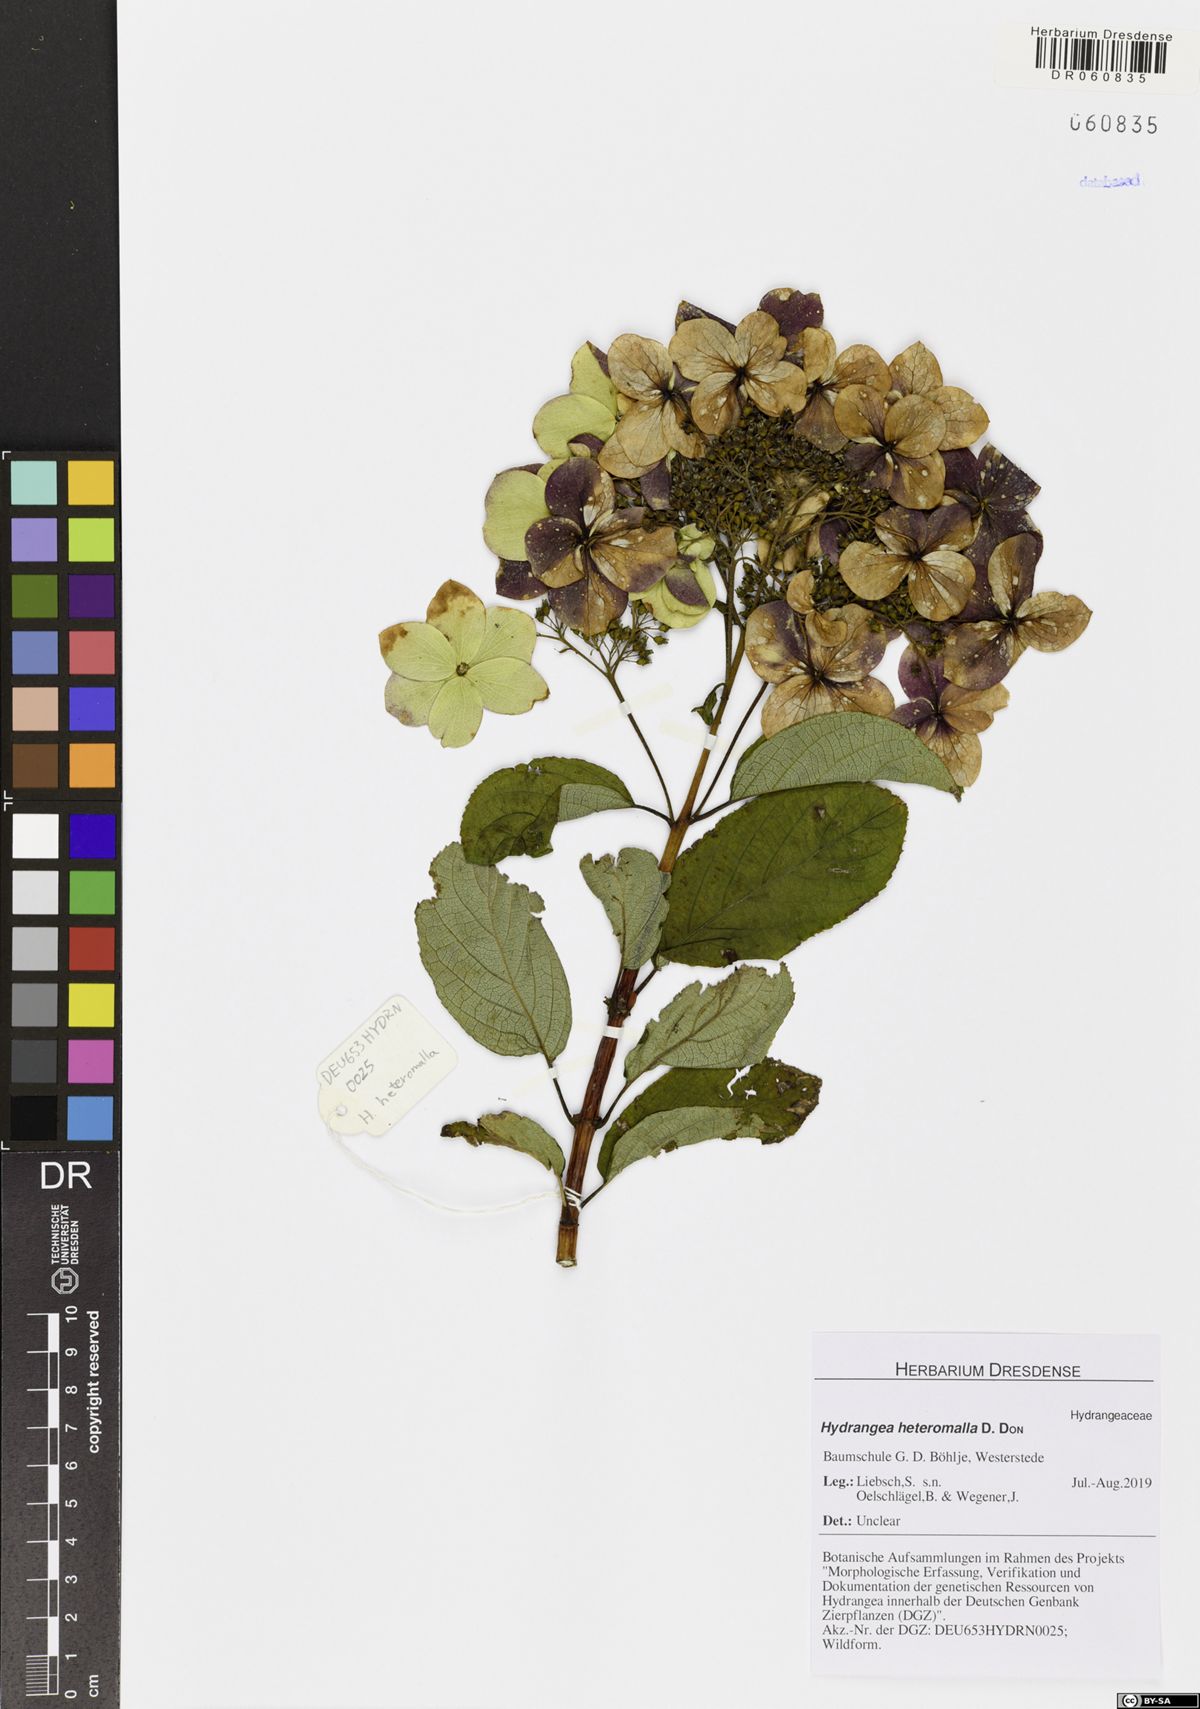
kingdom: Plantae
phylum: Tracheophyta
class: Magnoliopsida
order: Cornales
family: Hydrangeaceae
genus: Hydrangea
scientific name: Hydrangea heteromalla
